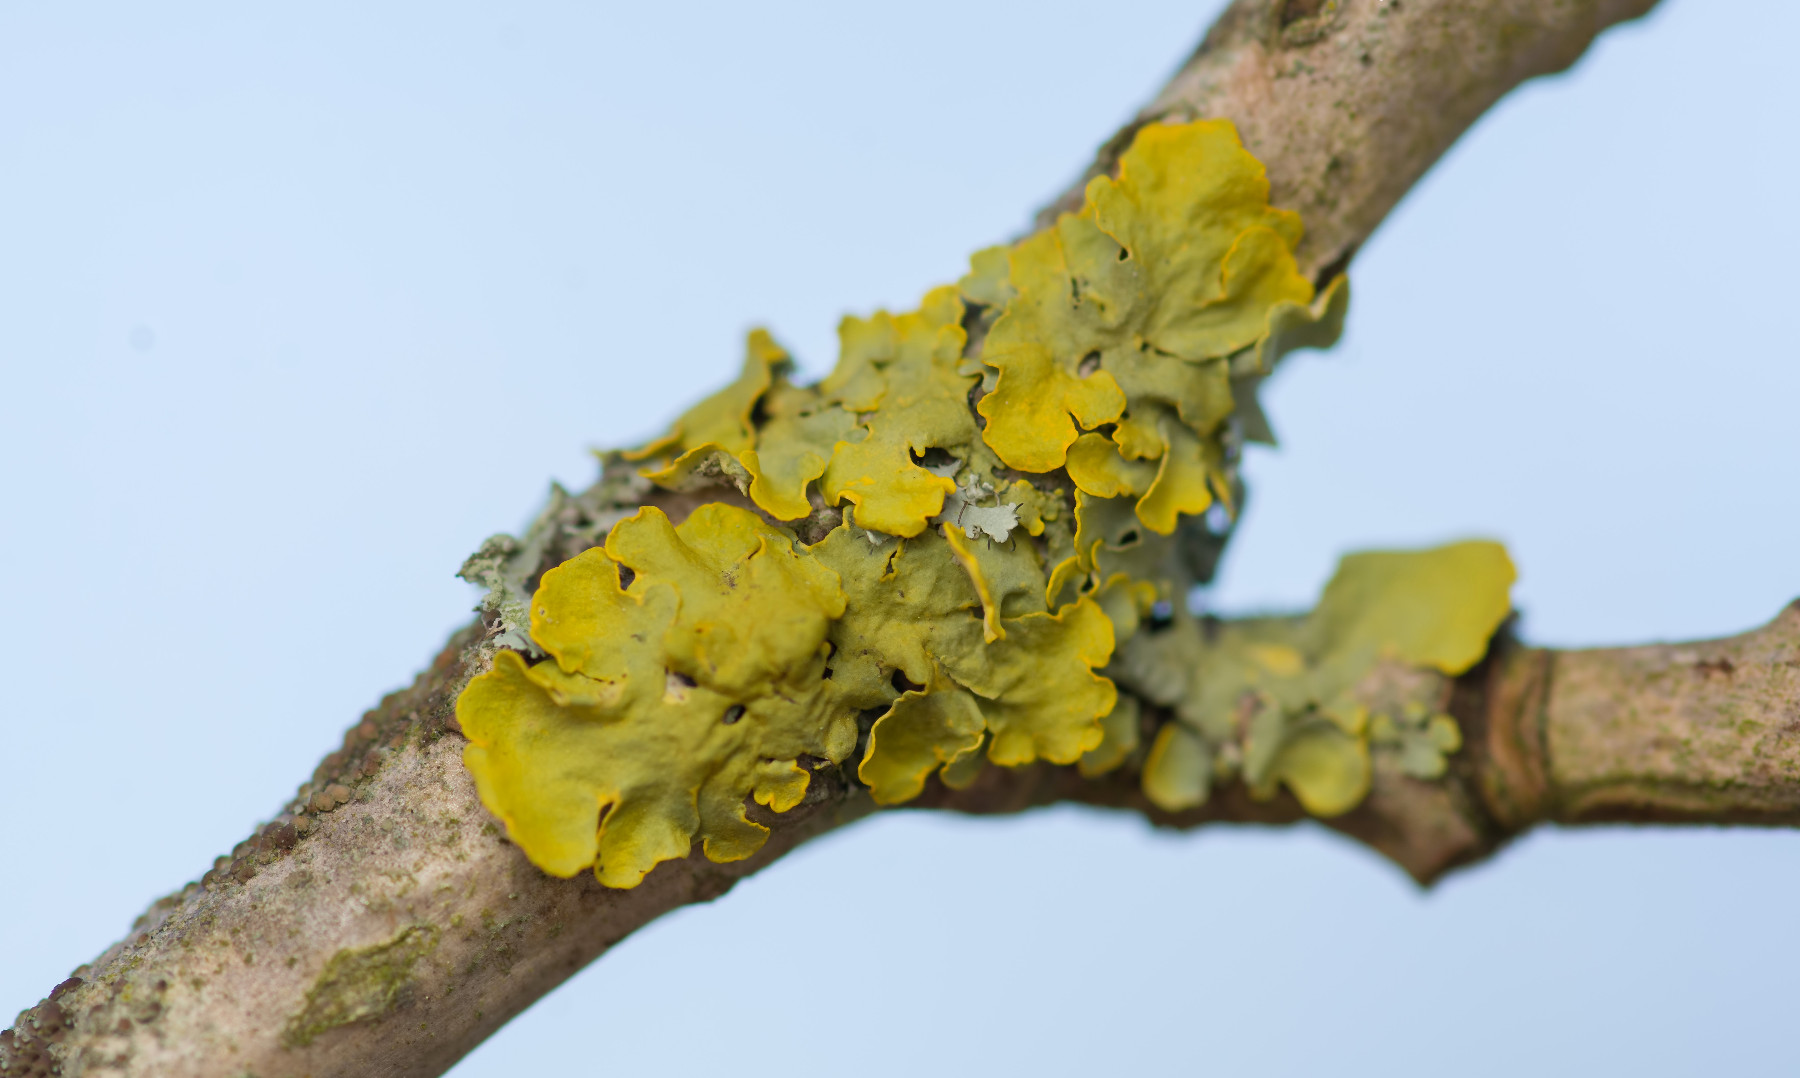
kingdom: Fungi
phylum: Ascomycota
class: Lecanoromycetes
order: Teloschistales
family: Teloschistaceae
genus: Xanthoria
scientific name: Xanthoria parietina
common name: almindelig væggelav
